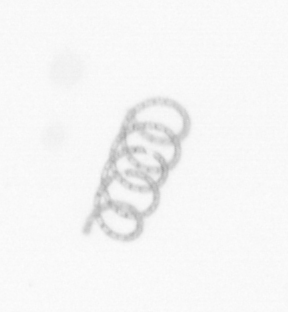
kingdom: Chromista
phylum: Ochrophyta
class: Bacillariophyceae
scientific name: Bacillariophyceae
